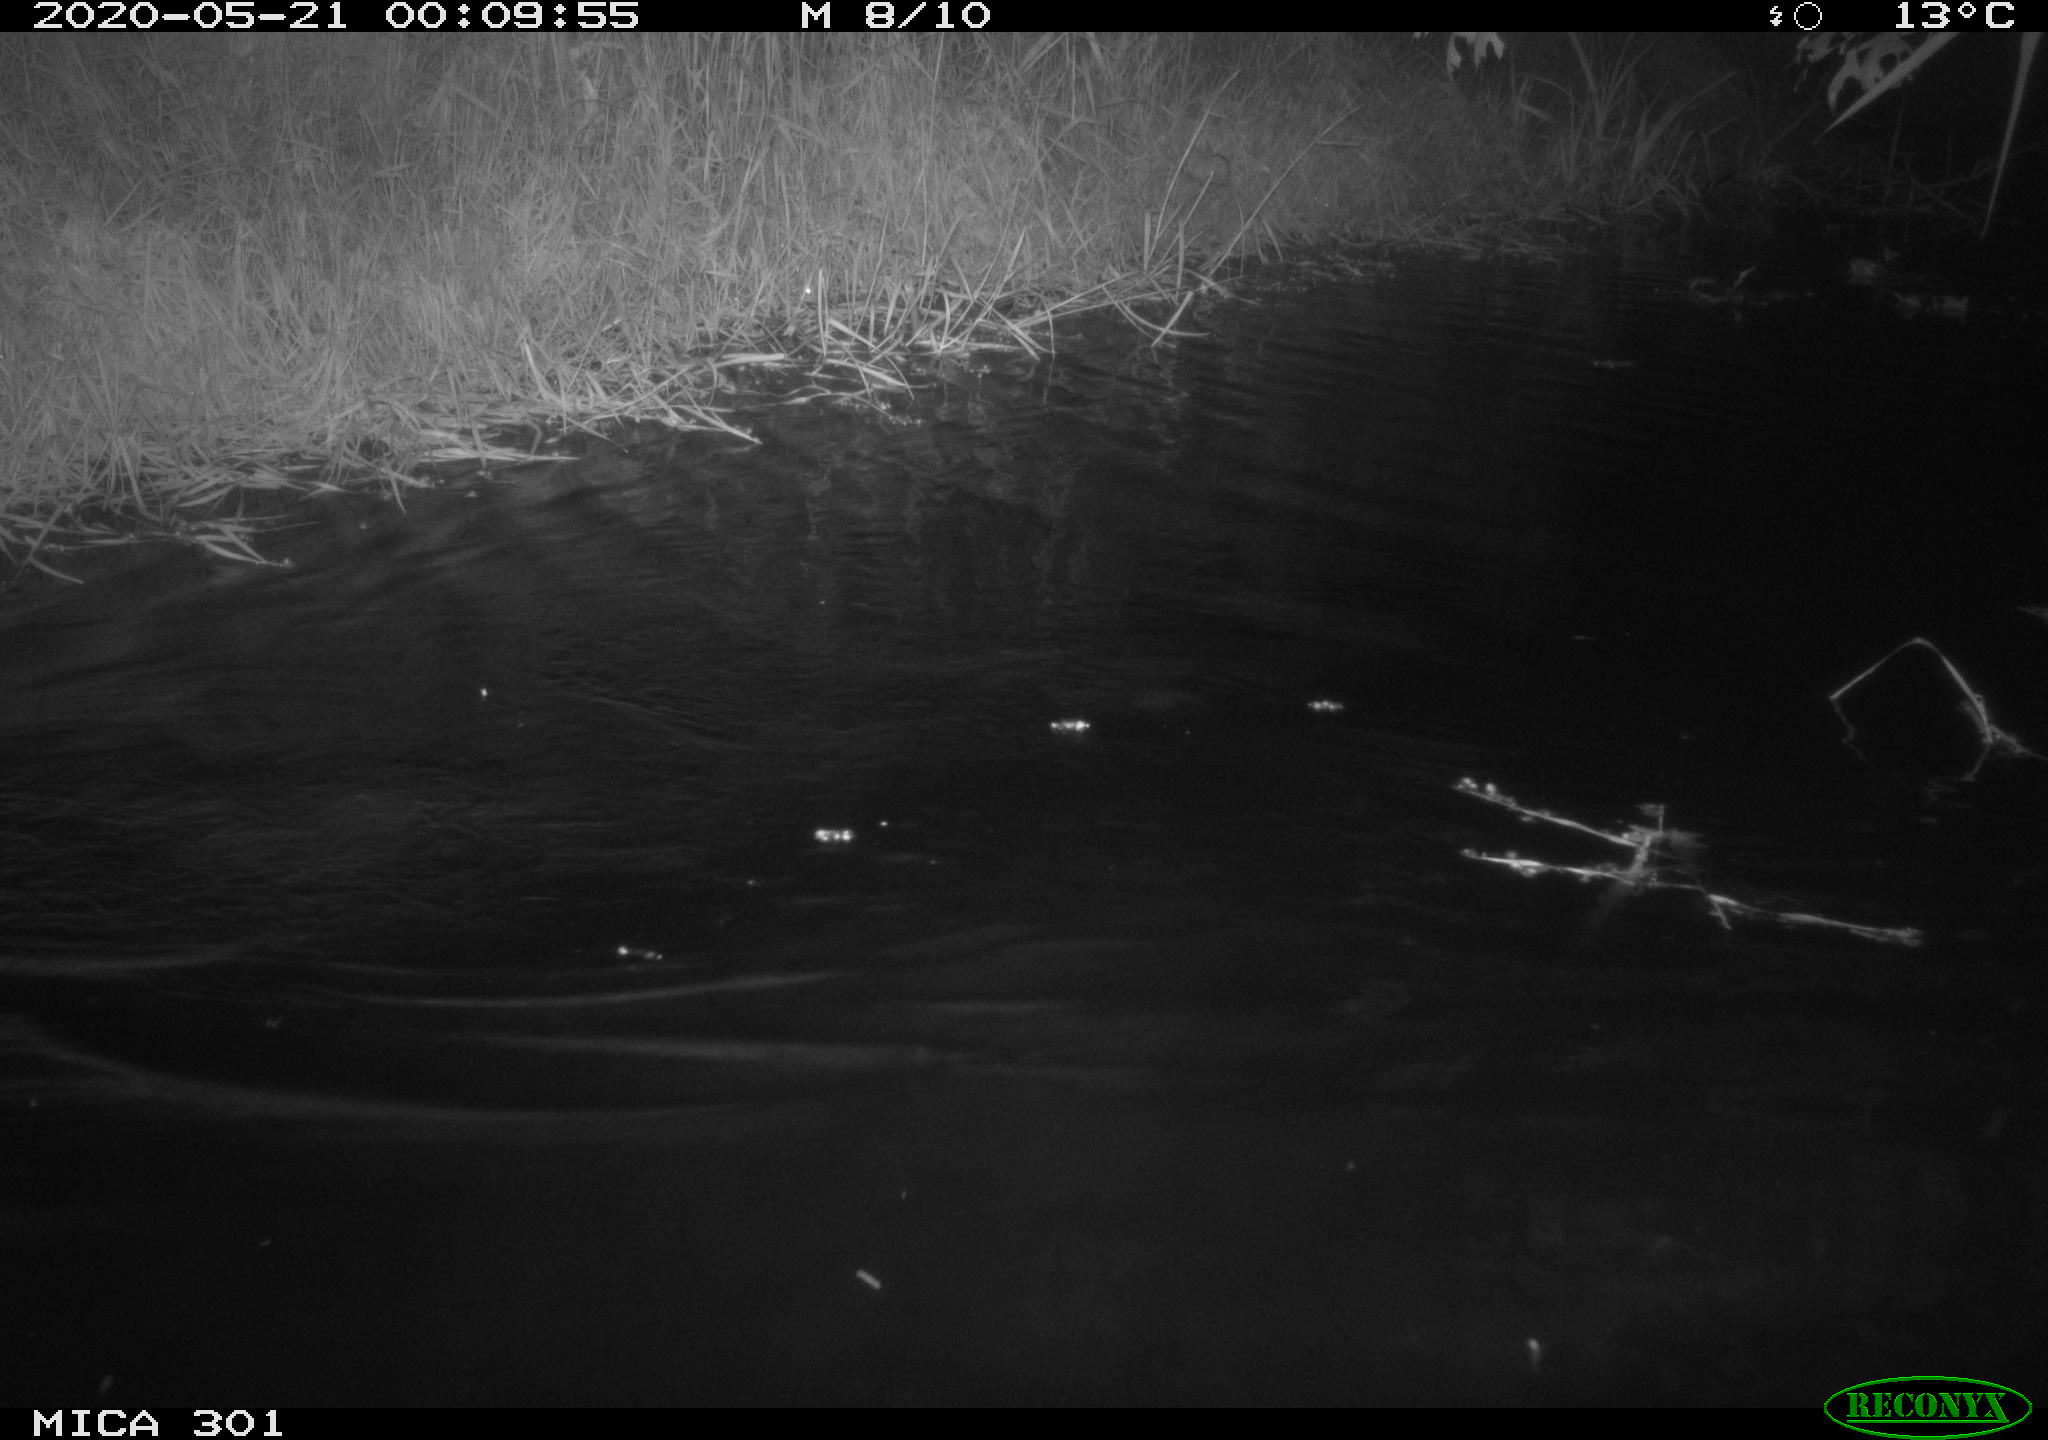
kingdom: Animalia
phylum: Chordata
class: Mammalia
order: Rodentia
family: Castoridae
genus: Castor
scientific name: Castor fiber
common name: Eurasian beaver
